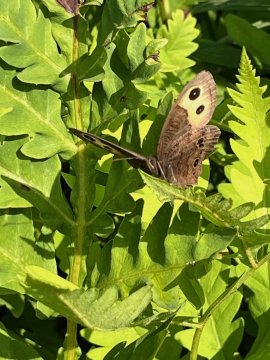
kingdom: Animalia
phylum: Arthropoda
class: Insecta
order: Lepidoptera
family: Nymphalidae
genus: Cercyonis
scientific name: Cercyonis pegala
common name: Common Wood-Nymph
